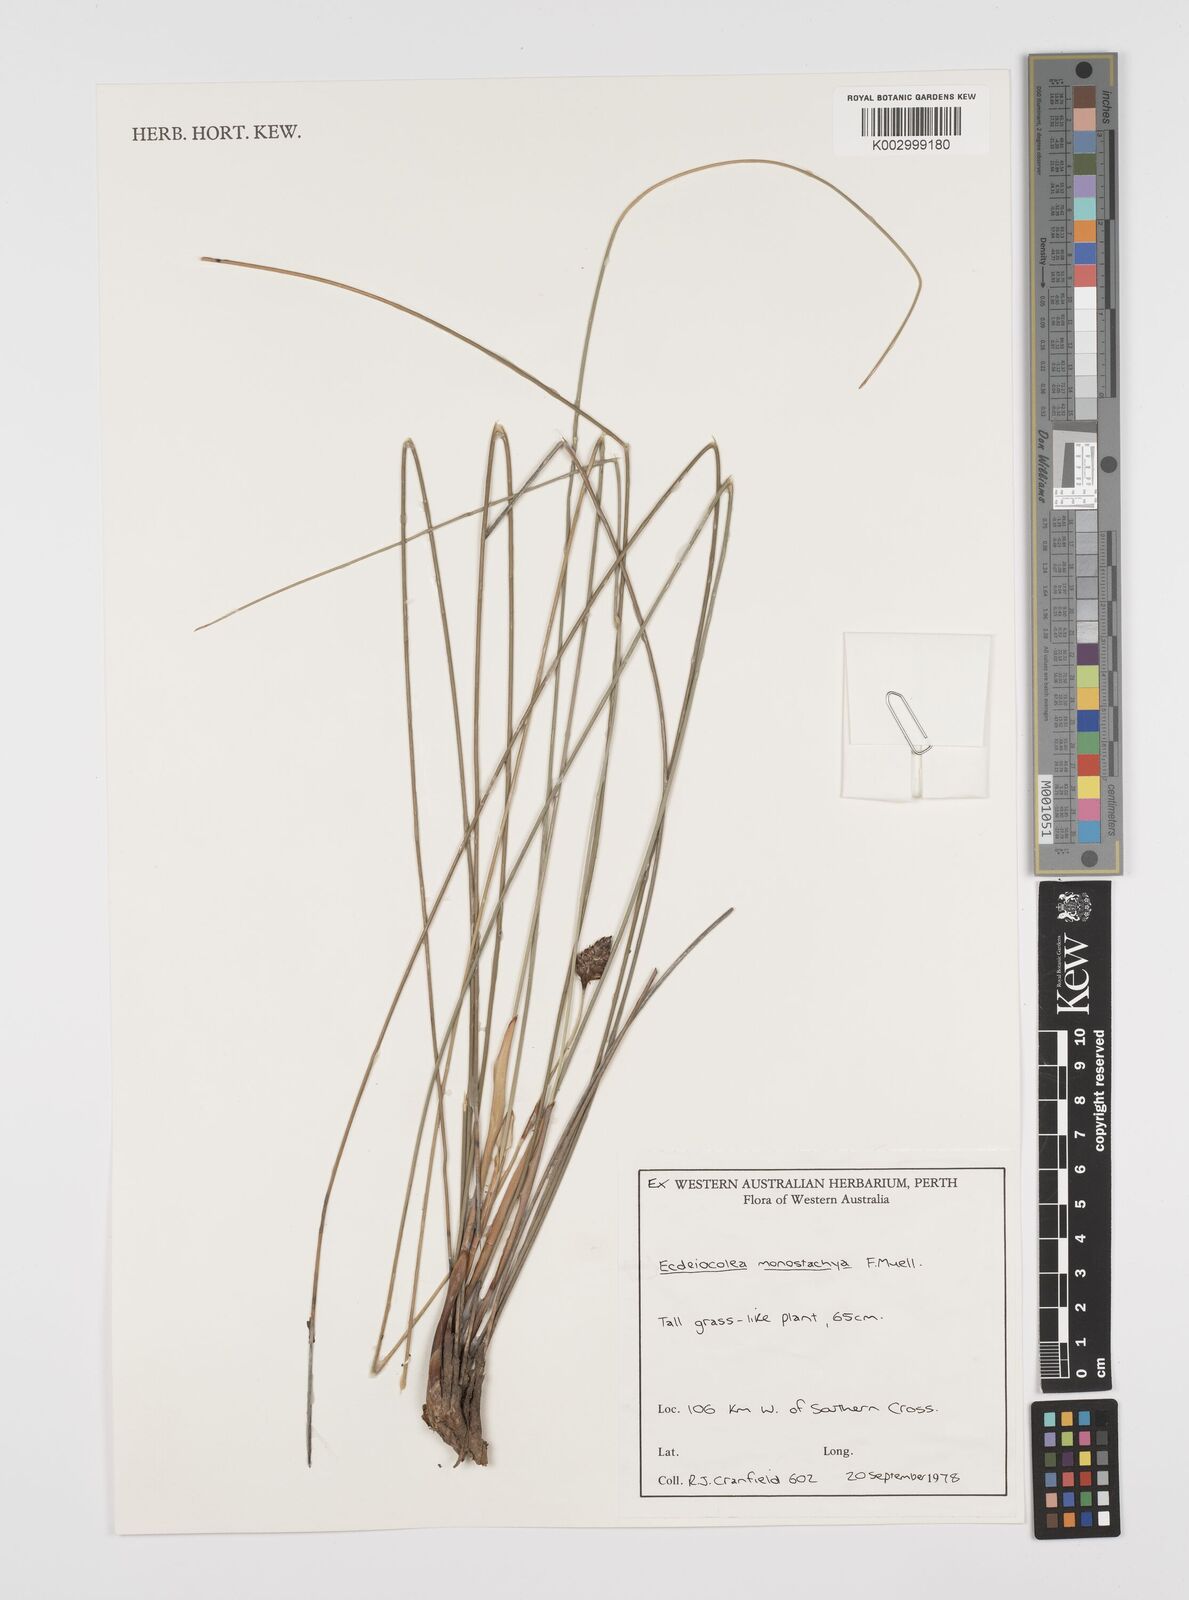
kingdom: Plantae
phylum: Tracheophyta
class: Liliopsida
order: Poales
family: Ecdeiocoleaceae
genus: Ecdeiocolea
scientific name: Ecdeiocolea monostachya
